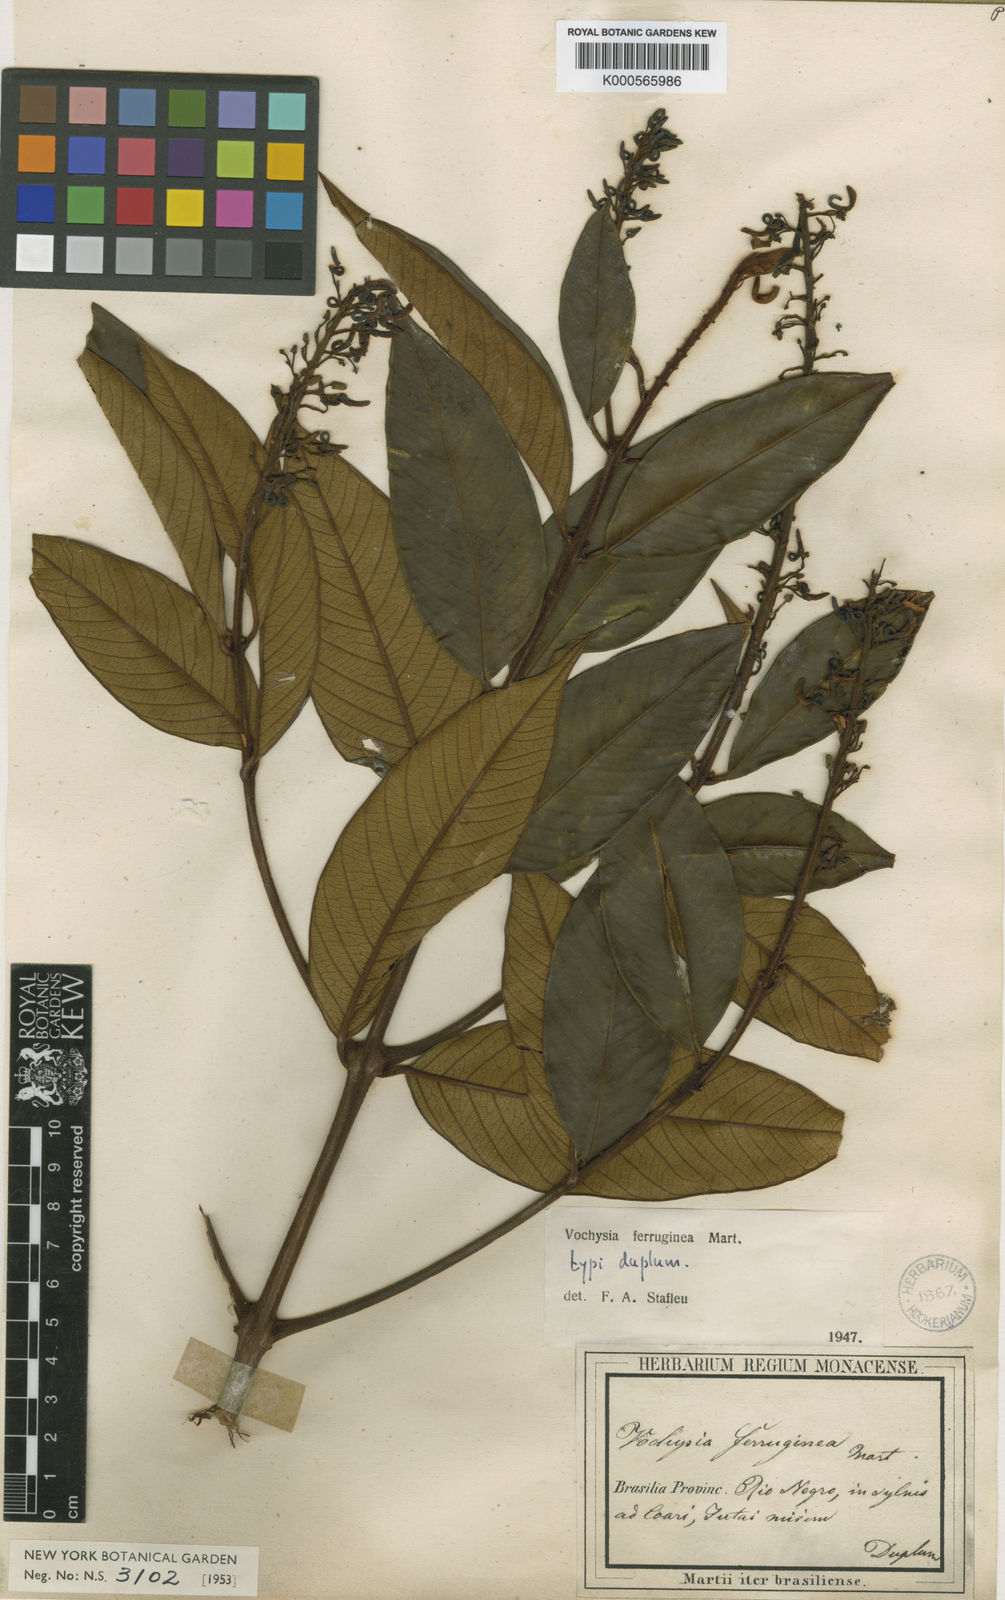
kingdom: Plantae
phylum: Tracheophyta
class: Magnoliopsida
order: Myrtales
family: Vochysiaceae
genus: Vochysia
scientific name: Vochysia ferruginea
